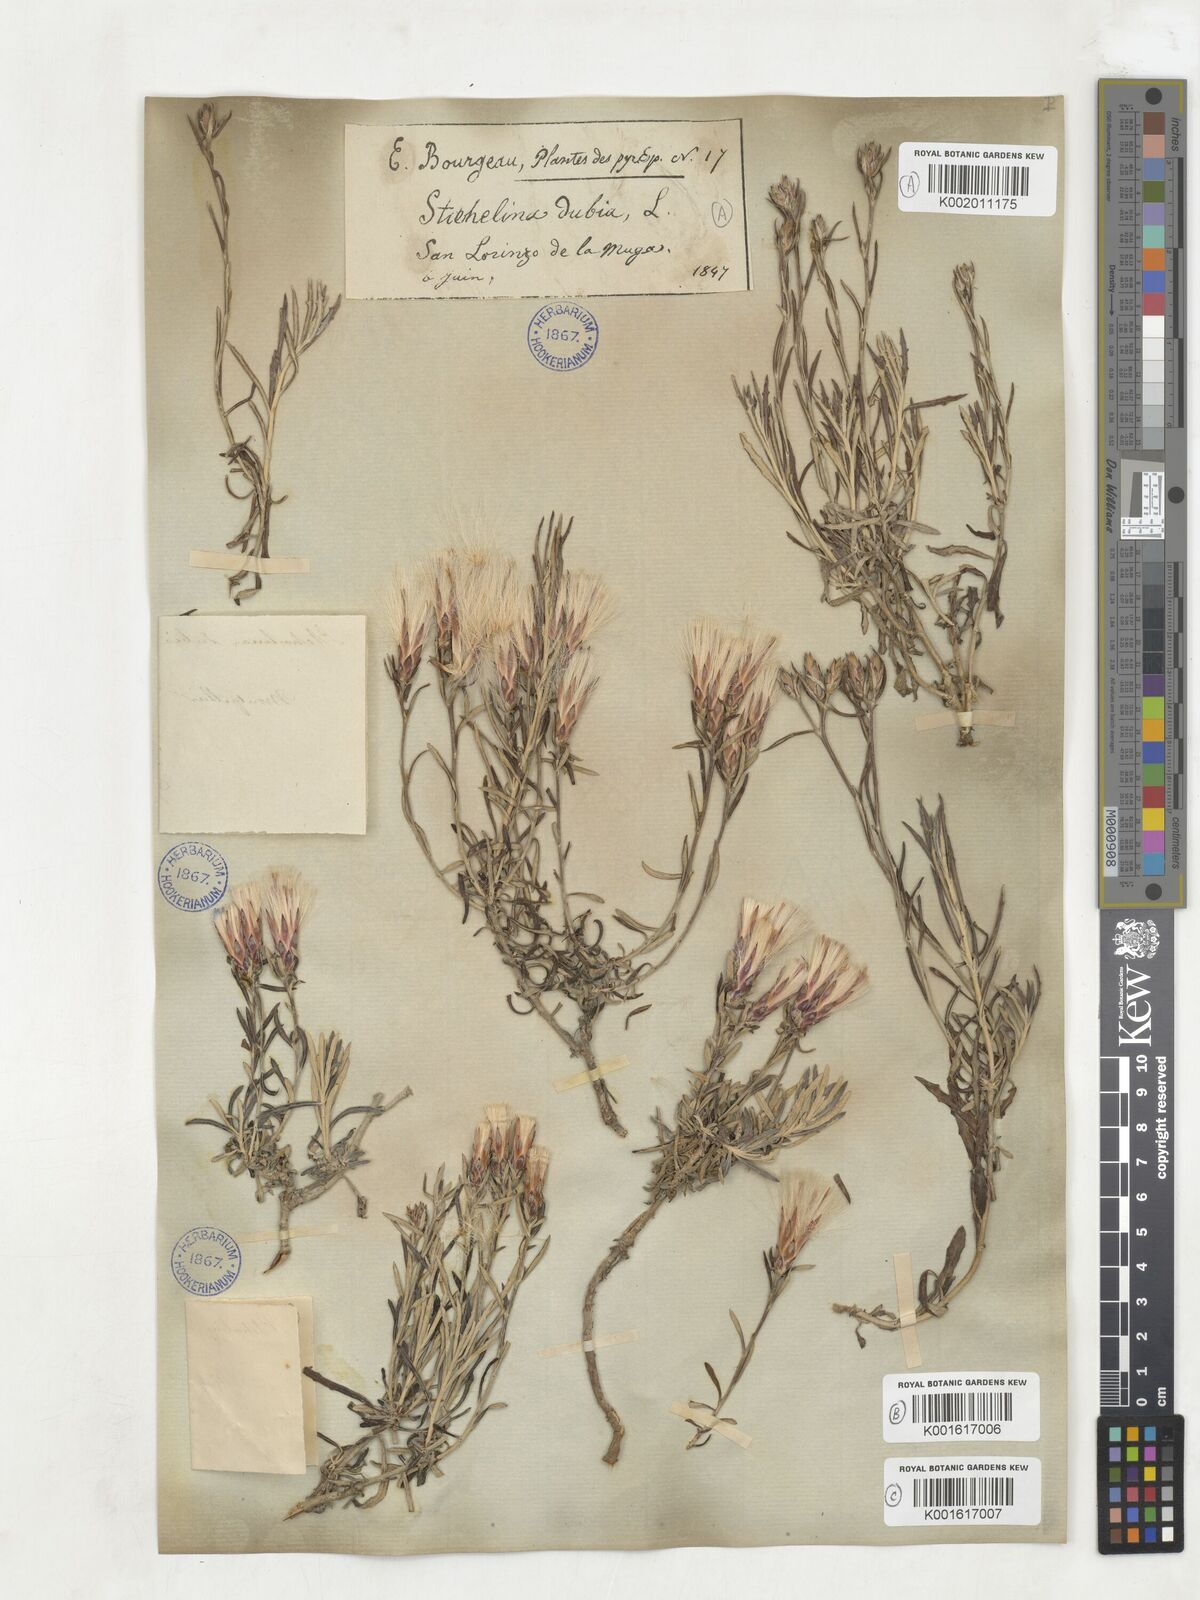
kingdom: Plantae
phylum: Tracheophyta
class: Magnoliopsida
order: Asterales
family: Asteraceae
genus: Staehelina
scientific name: Staehelina dubia
